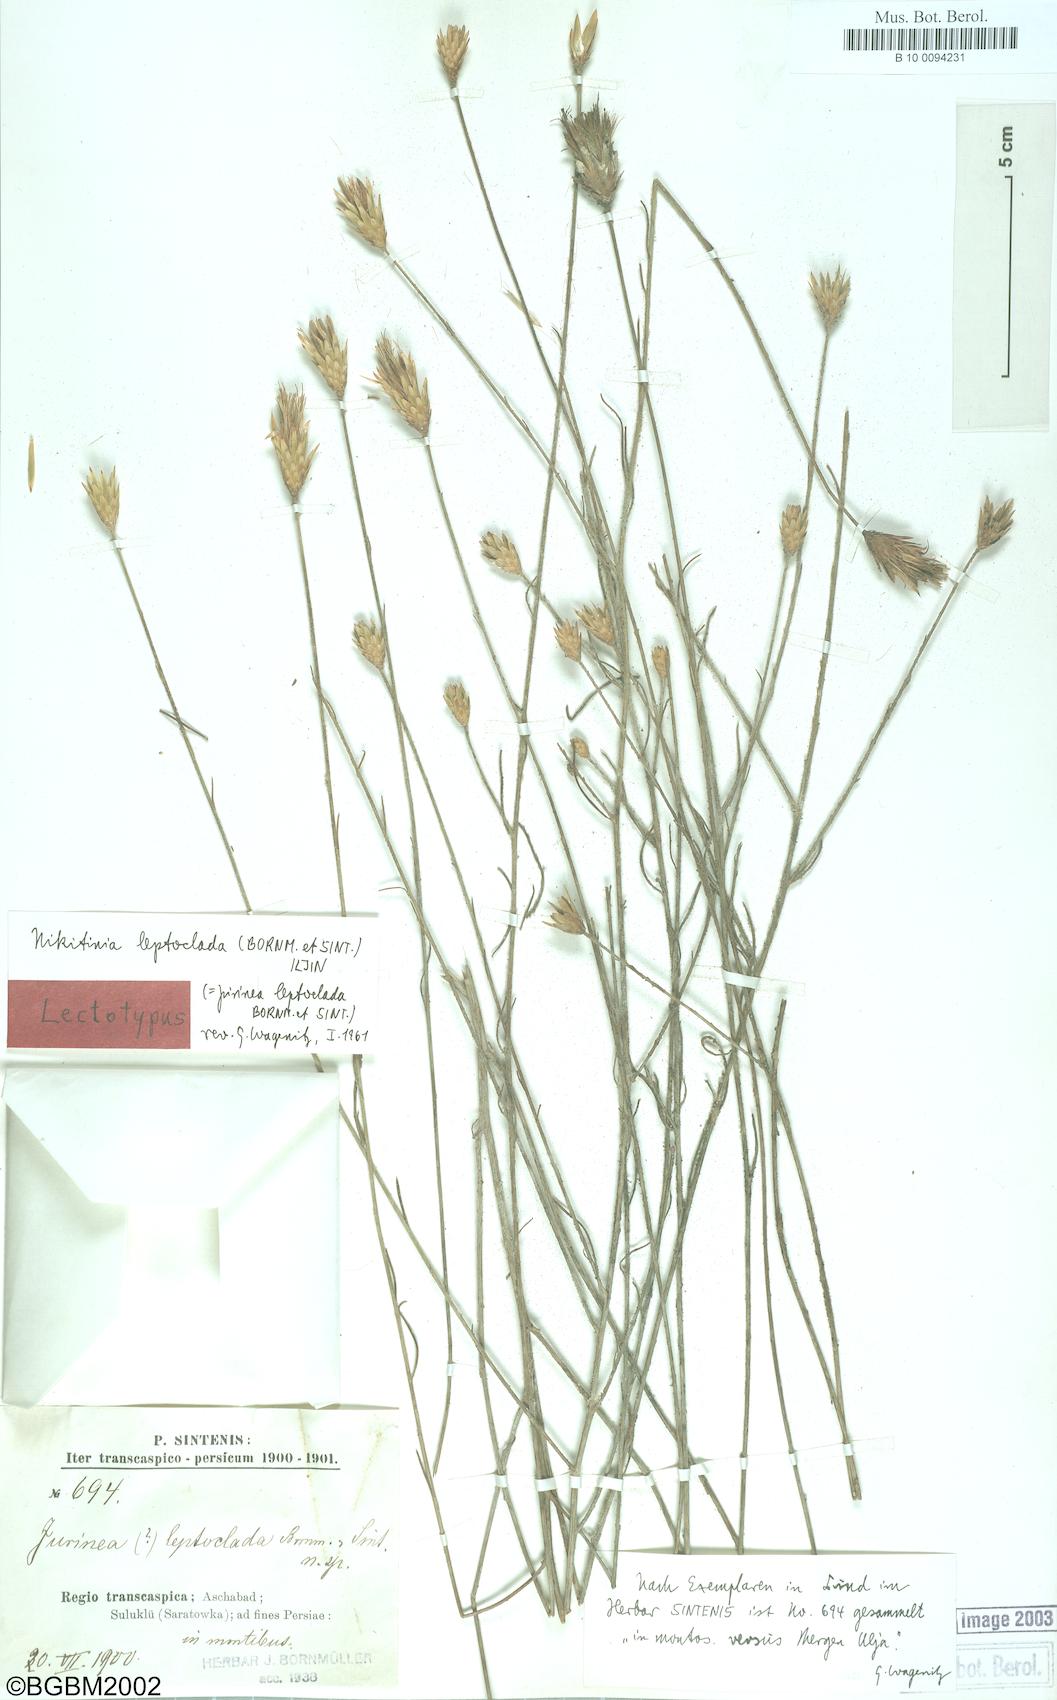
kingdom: Plantae
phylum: Tracheophyta
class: Magnoliopsida
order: Asterales
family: Asteraceae
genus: Klasea
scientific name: Klasea leptoclada
